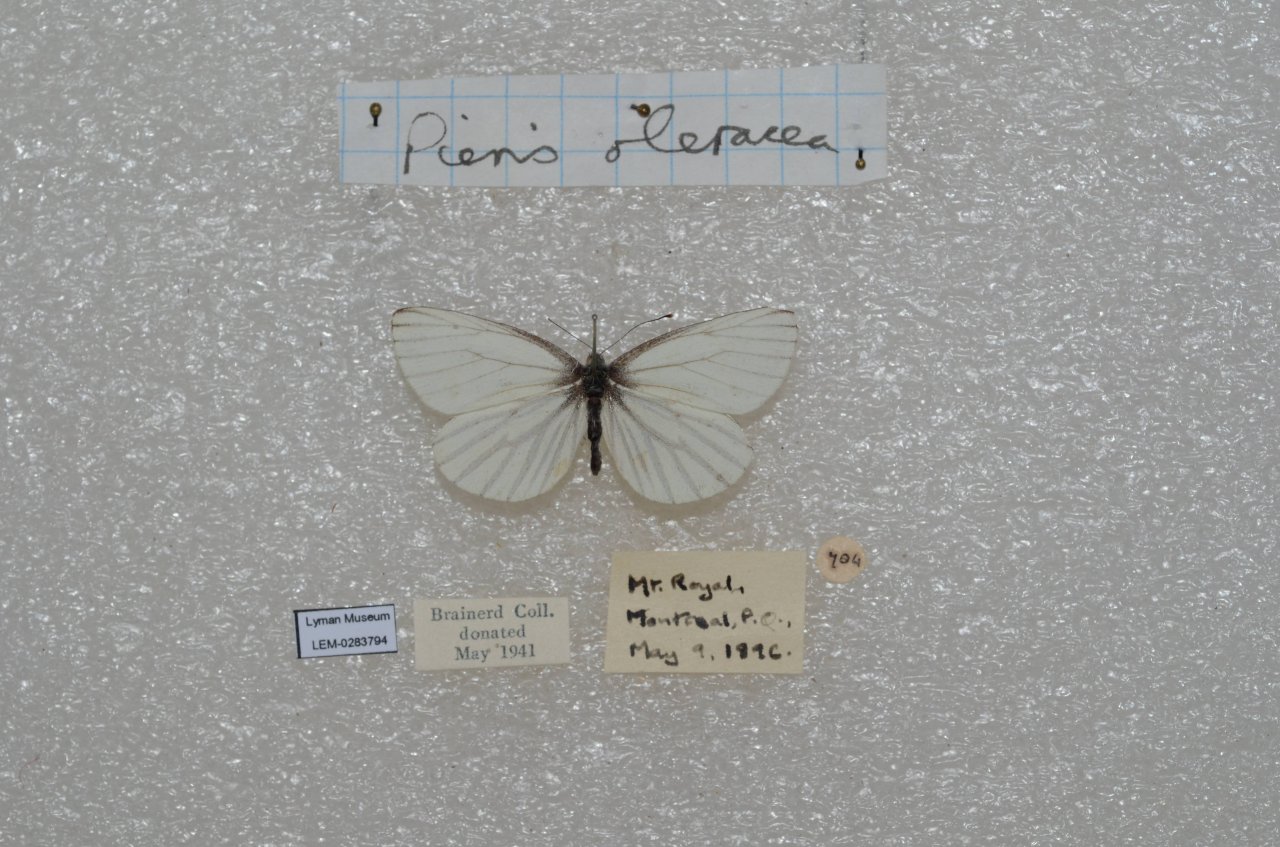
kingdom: Animalia
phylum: Arthropoda
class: Insecta
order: Lepidoptera
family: Pieridae
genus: Pieris
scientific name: Pieris oleracea
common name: Mustard White
